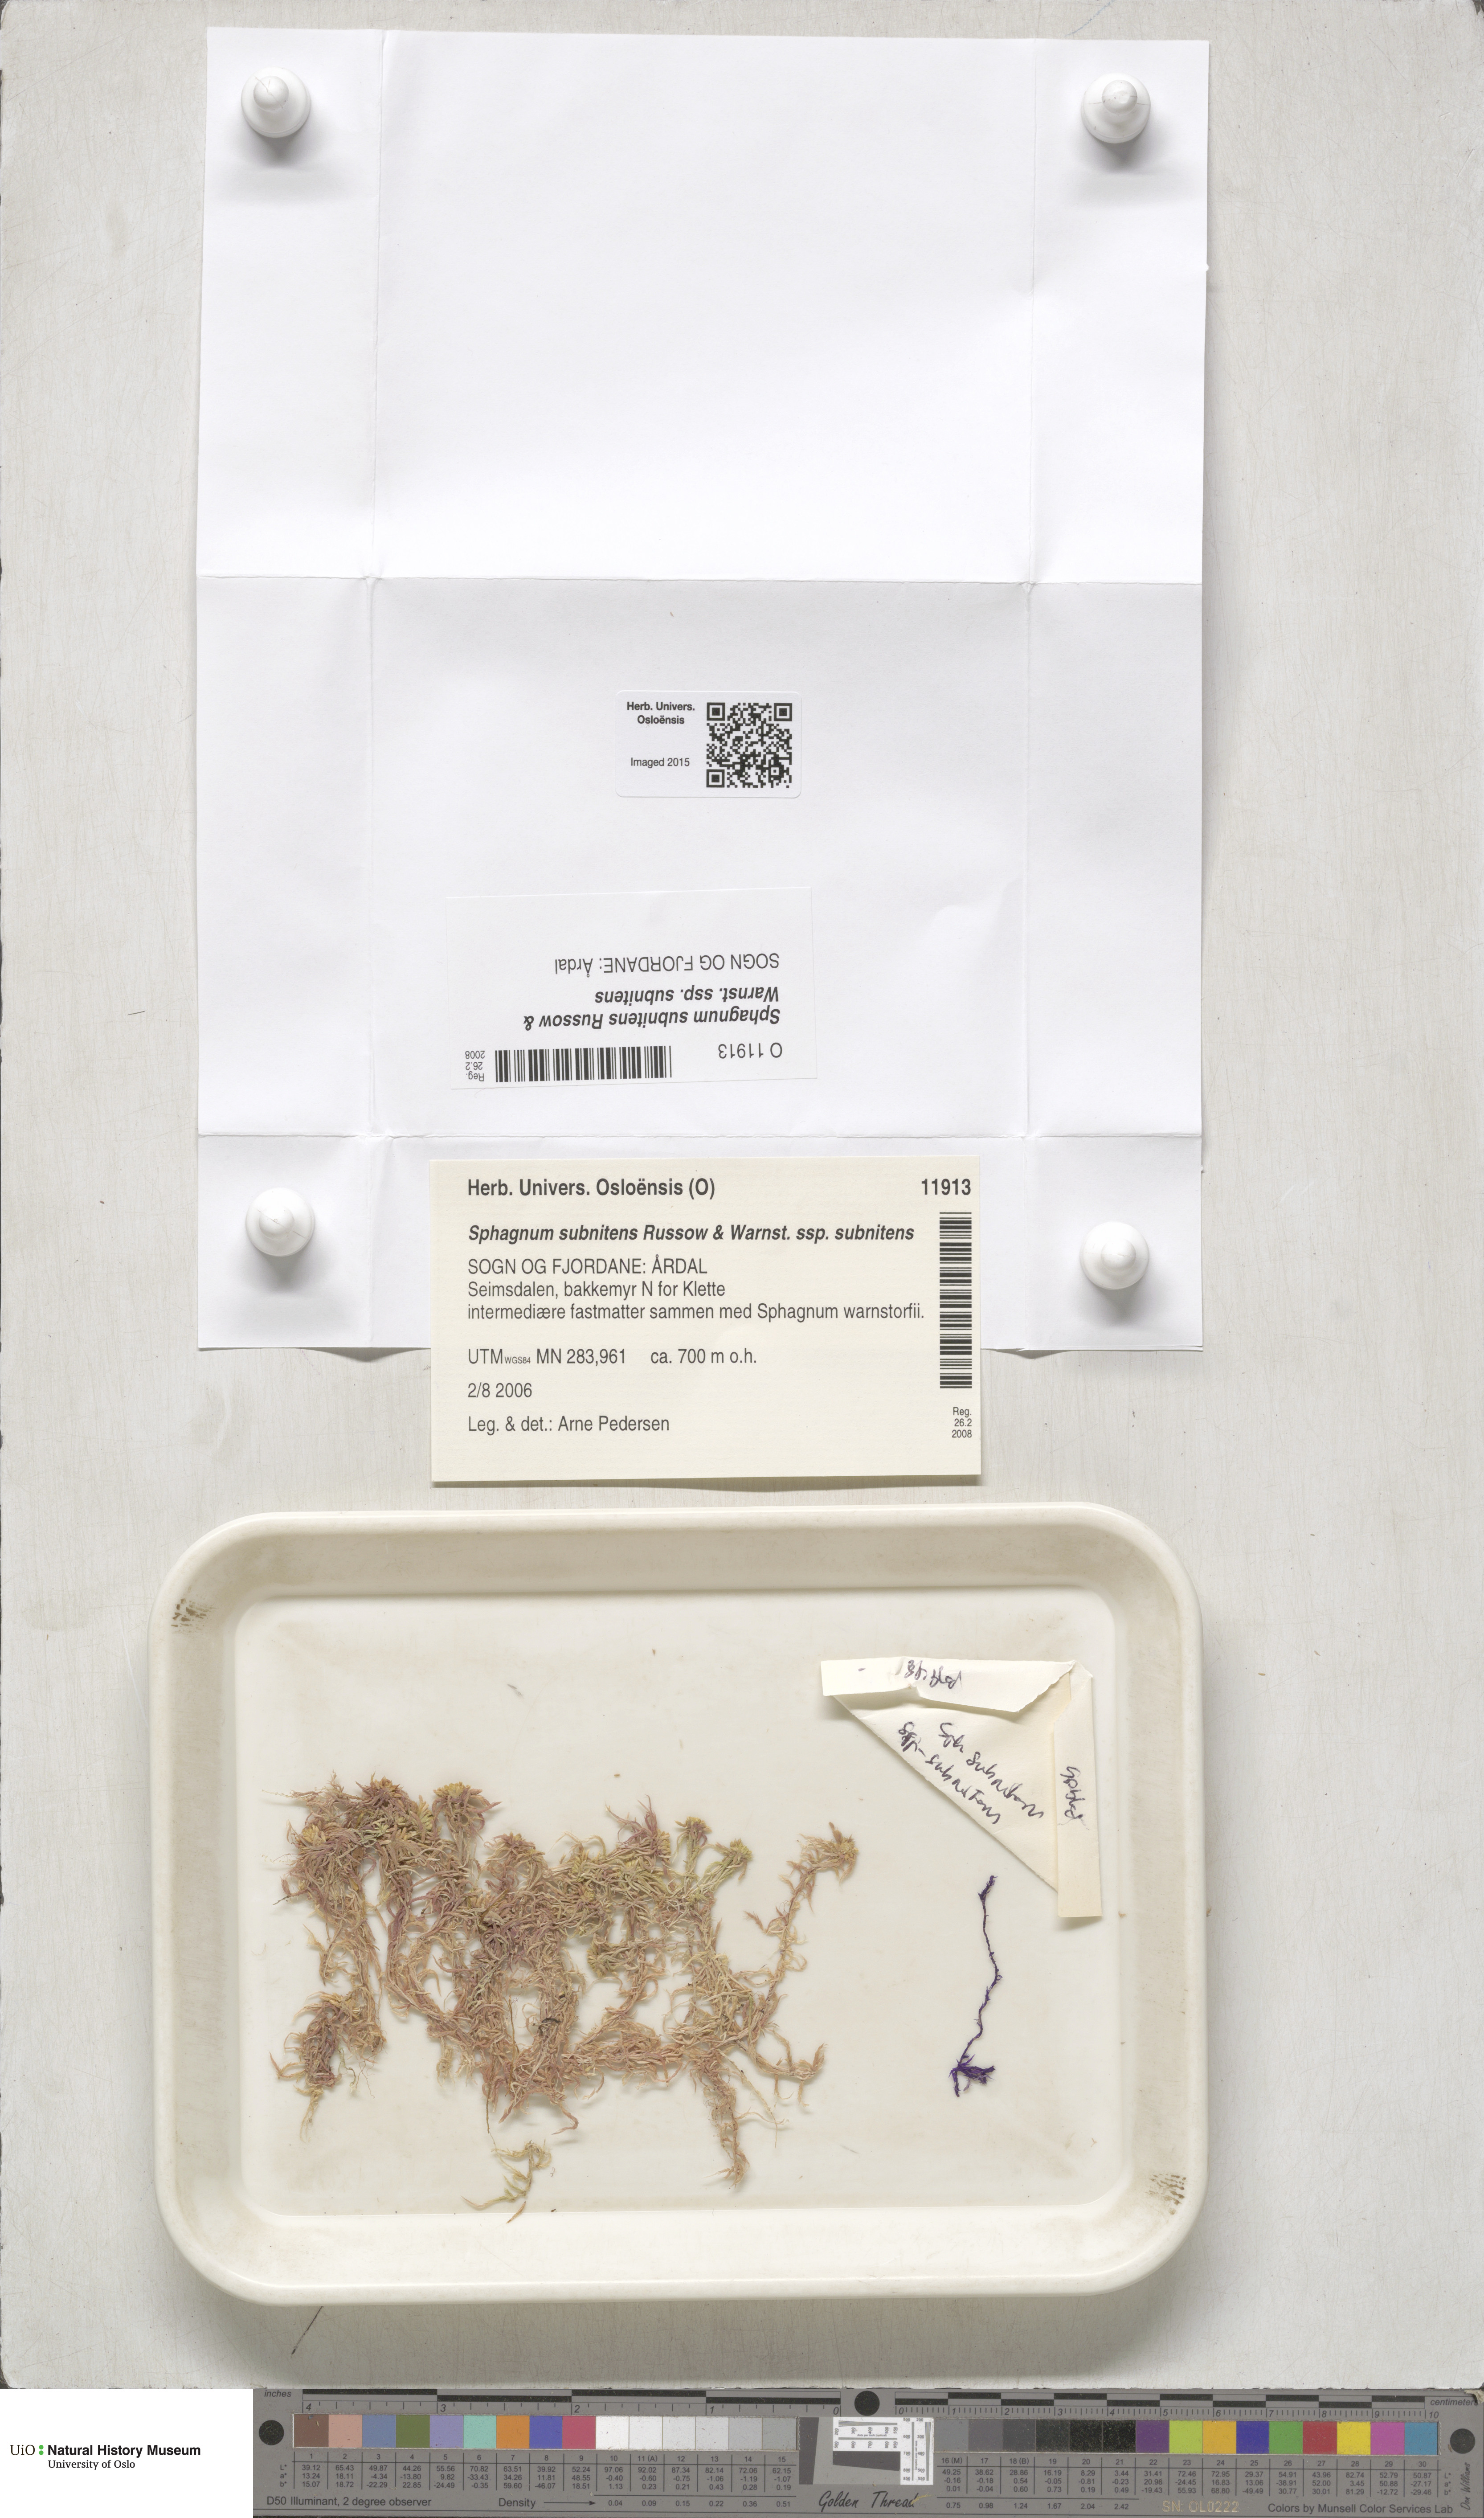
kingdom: Plantae
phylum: Bryophyta
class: Sphagnopsida
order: Sphagnales
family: Sphagnaceae
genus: Sphagnum
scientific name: Sphagnum subnitens
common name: Lustrous bog-moss
